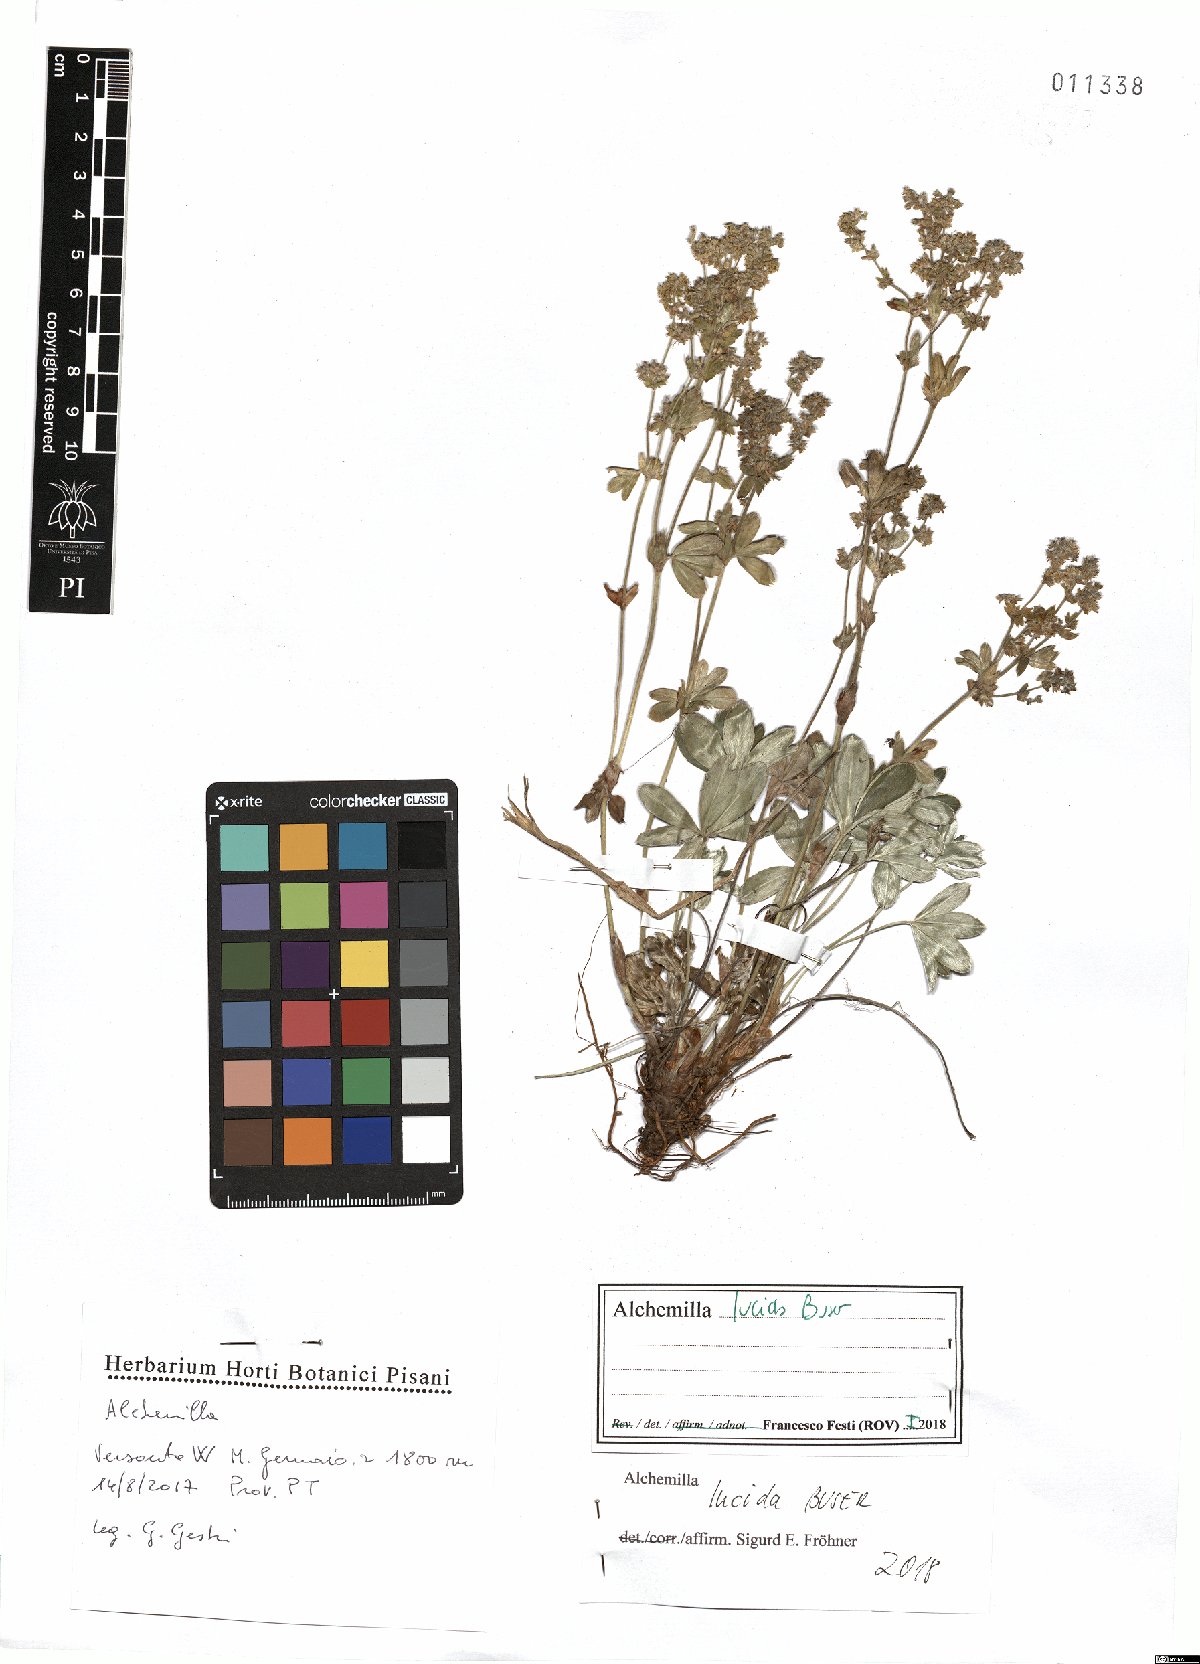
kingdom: Plantae
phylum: Tracheophyta
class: Magnoliopsida
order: Rosales
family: Rosaceae
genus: Alchemilla
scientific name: Alchemilla lucida
